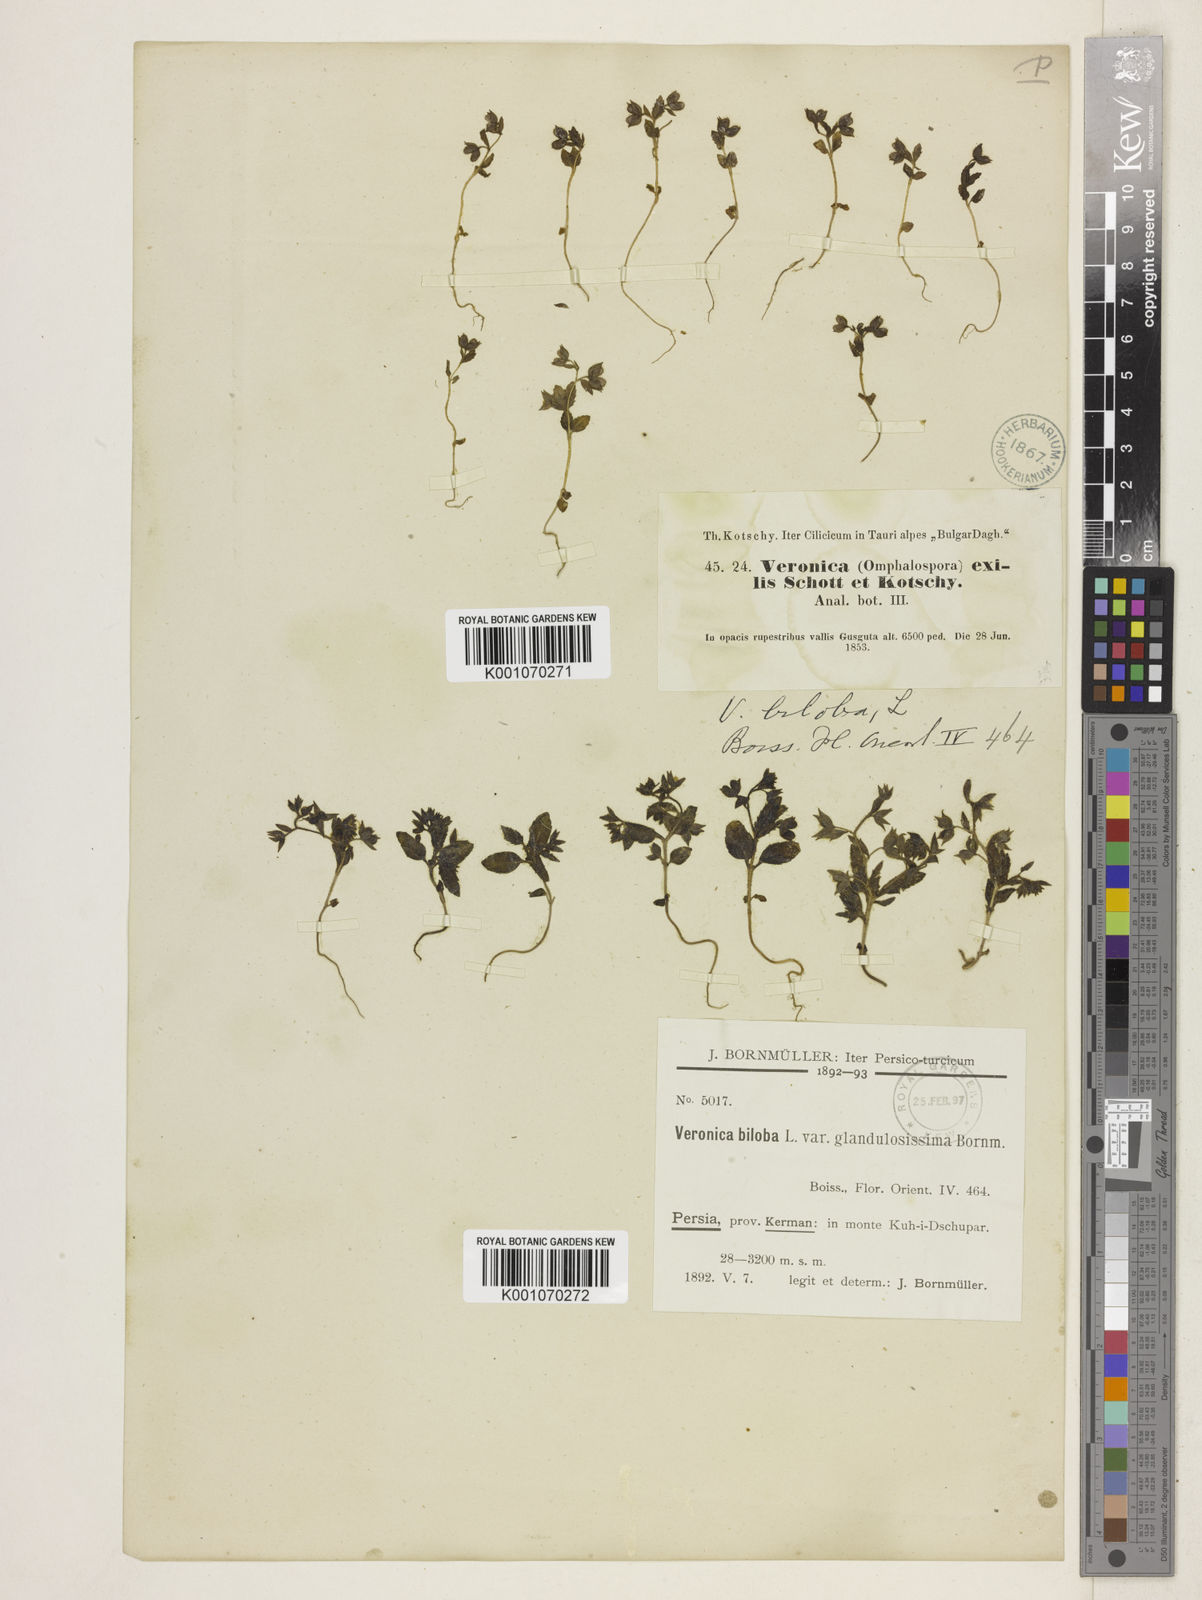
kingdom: Plantae
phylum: Tracheophyta
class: Magnoliopsida
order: Lamiales
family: Plantaginaceae
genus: Veronica
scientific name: Veronica biloba
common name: Twolobe speedwell
